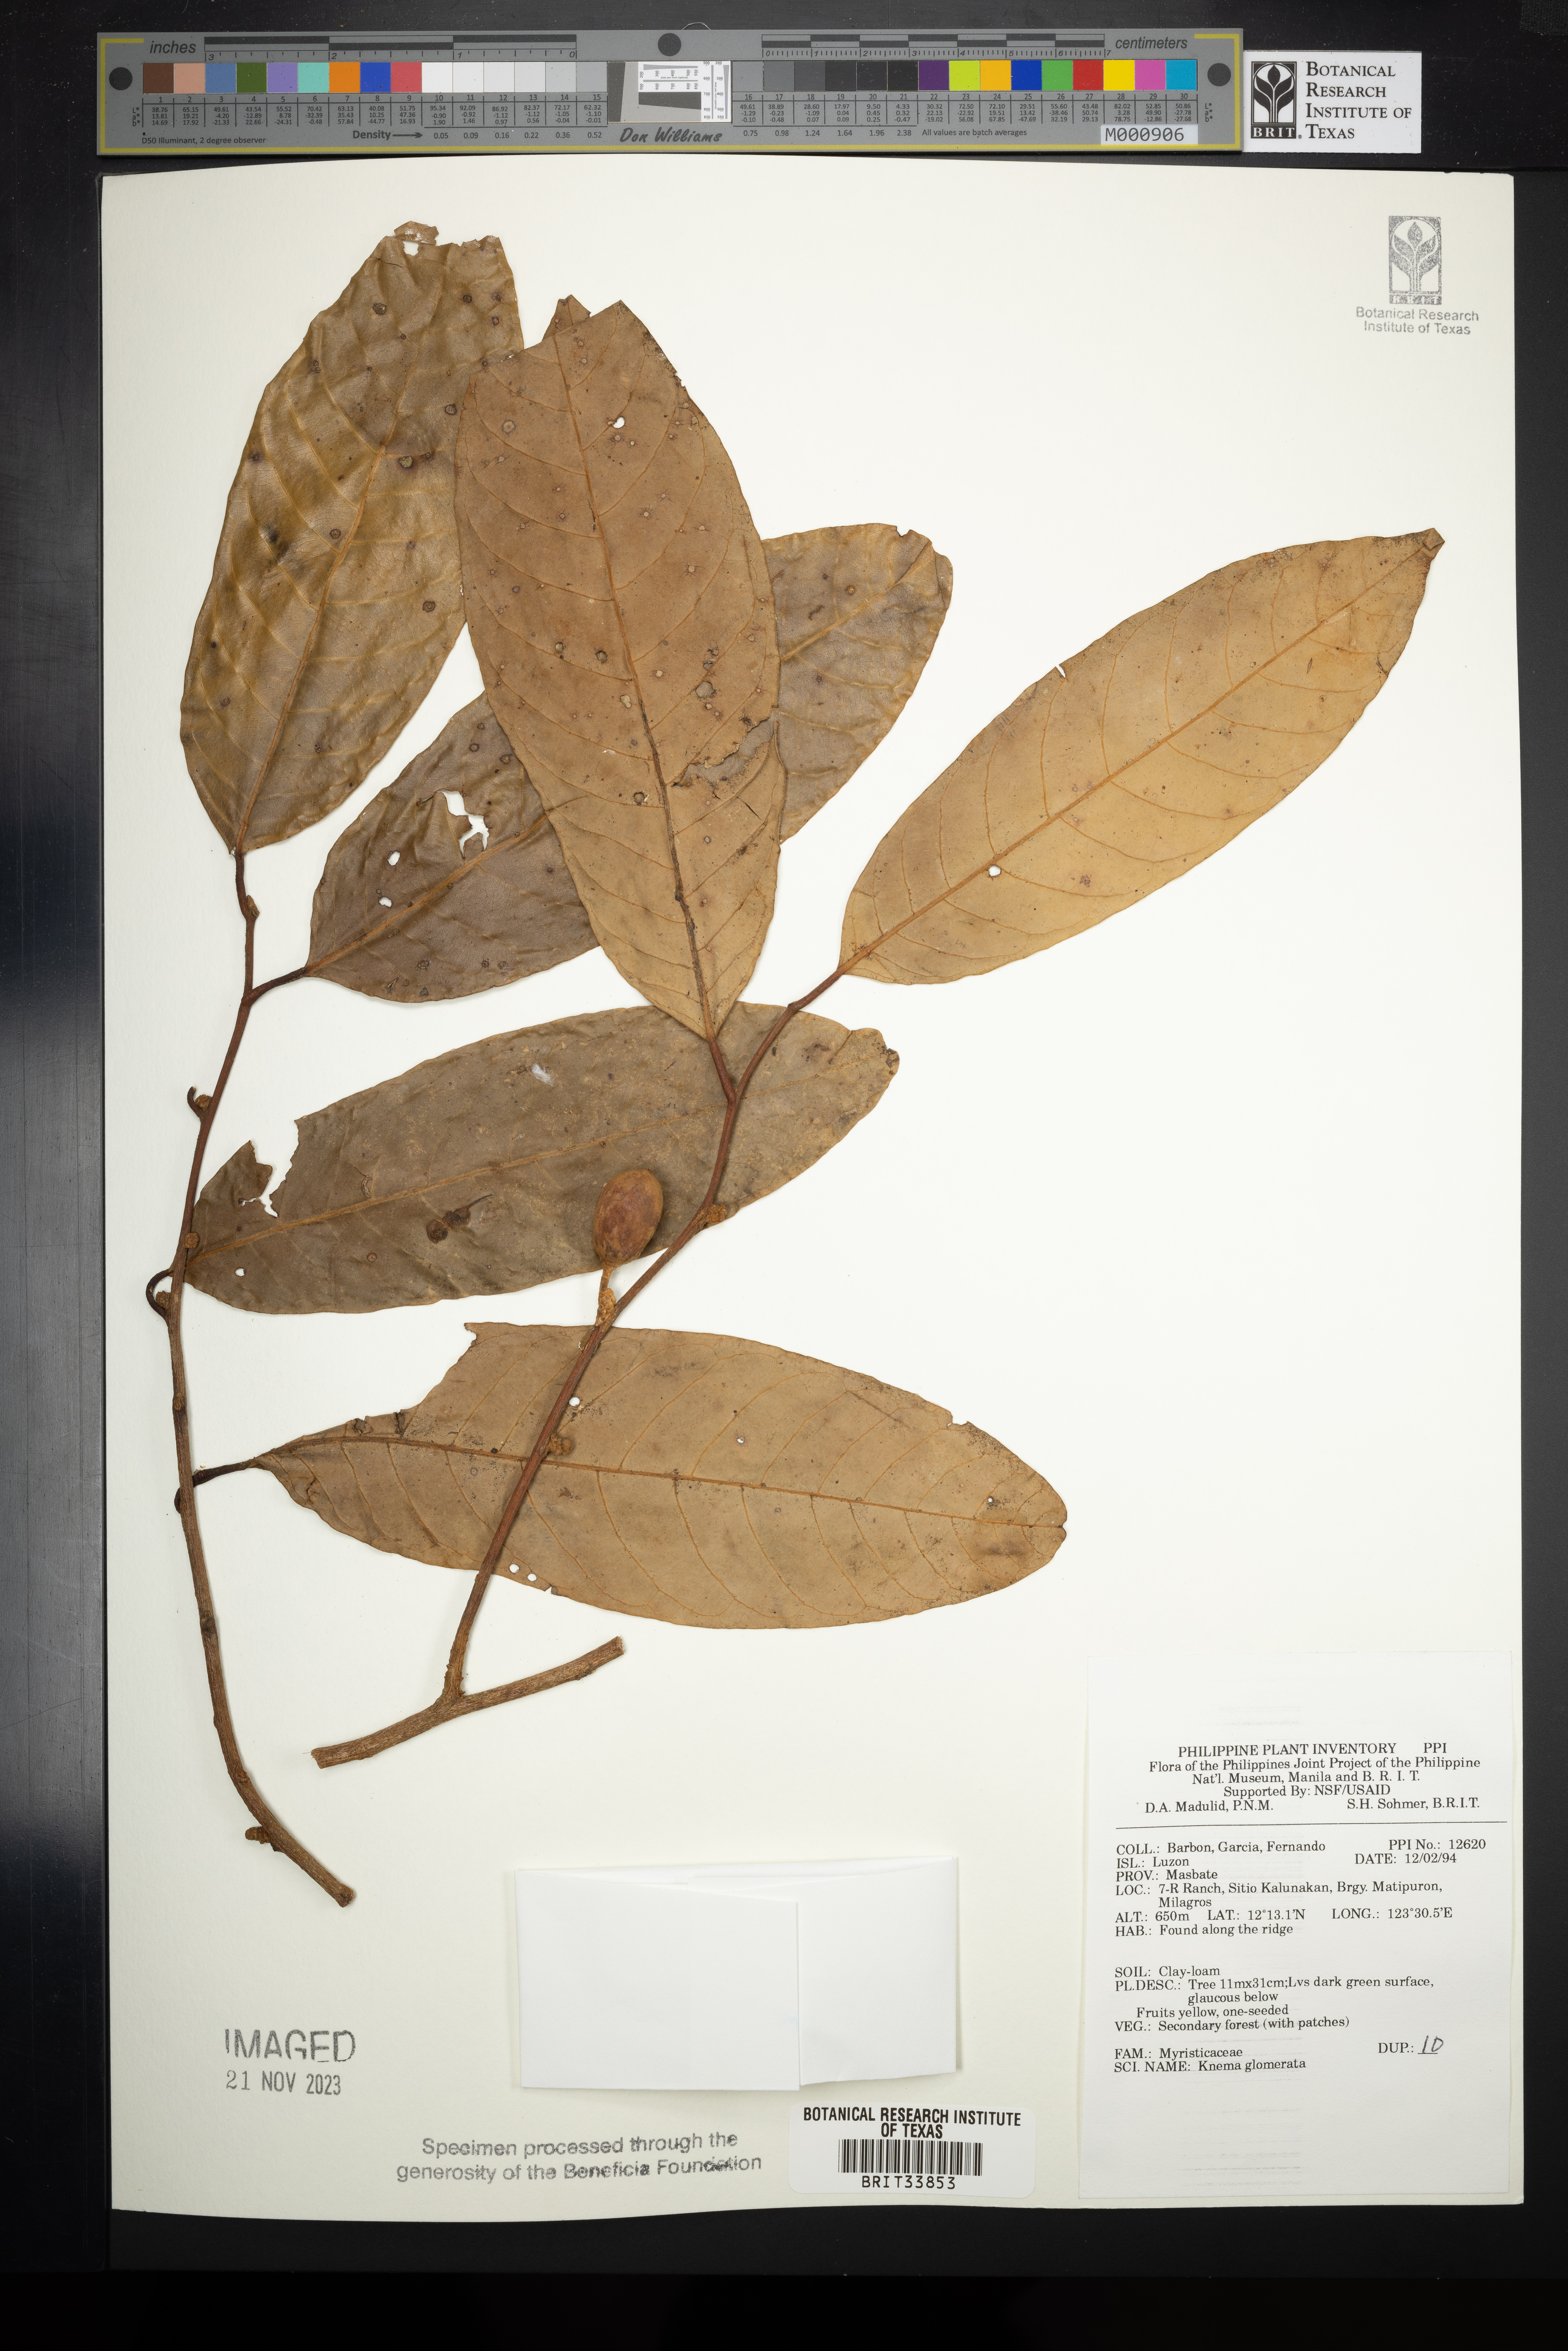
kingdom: Plantae
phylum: Tracheophyta
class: Magnoliopsida
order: Magnoliales
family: Myristicaceae
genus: Knema
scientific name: Knema glomerata
